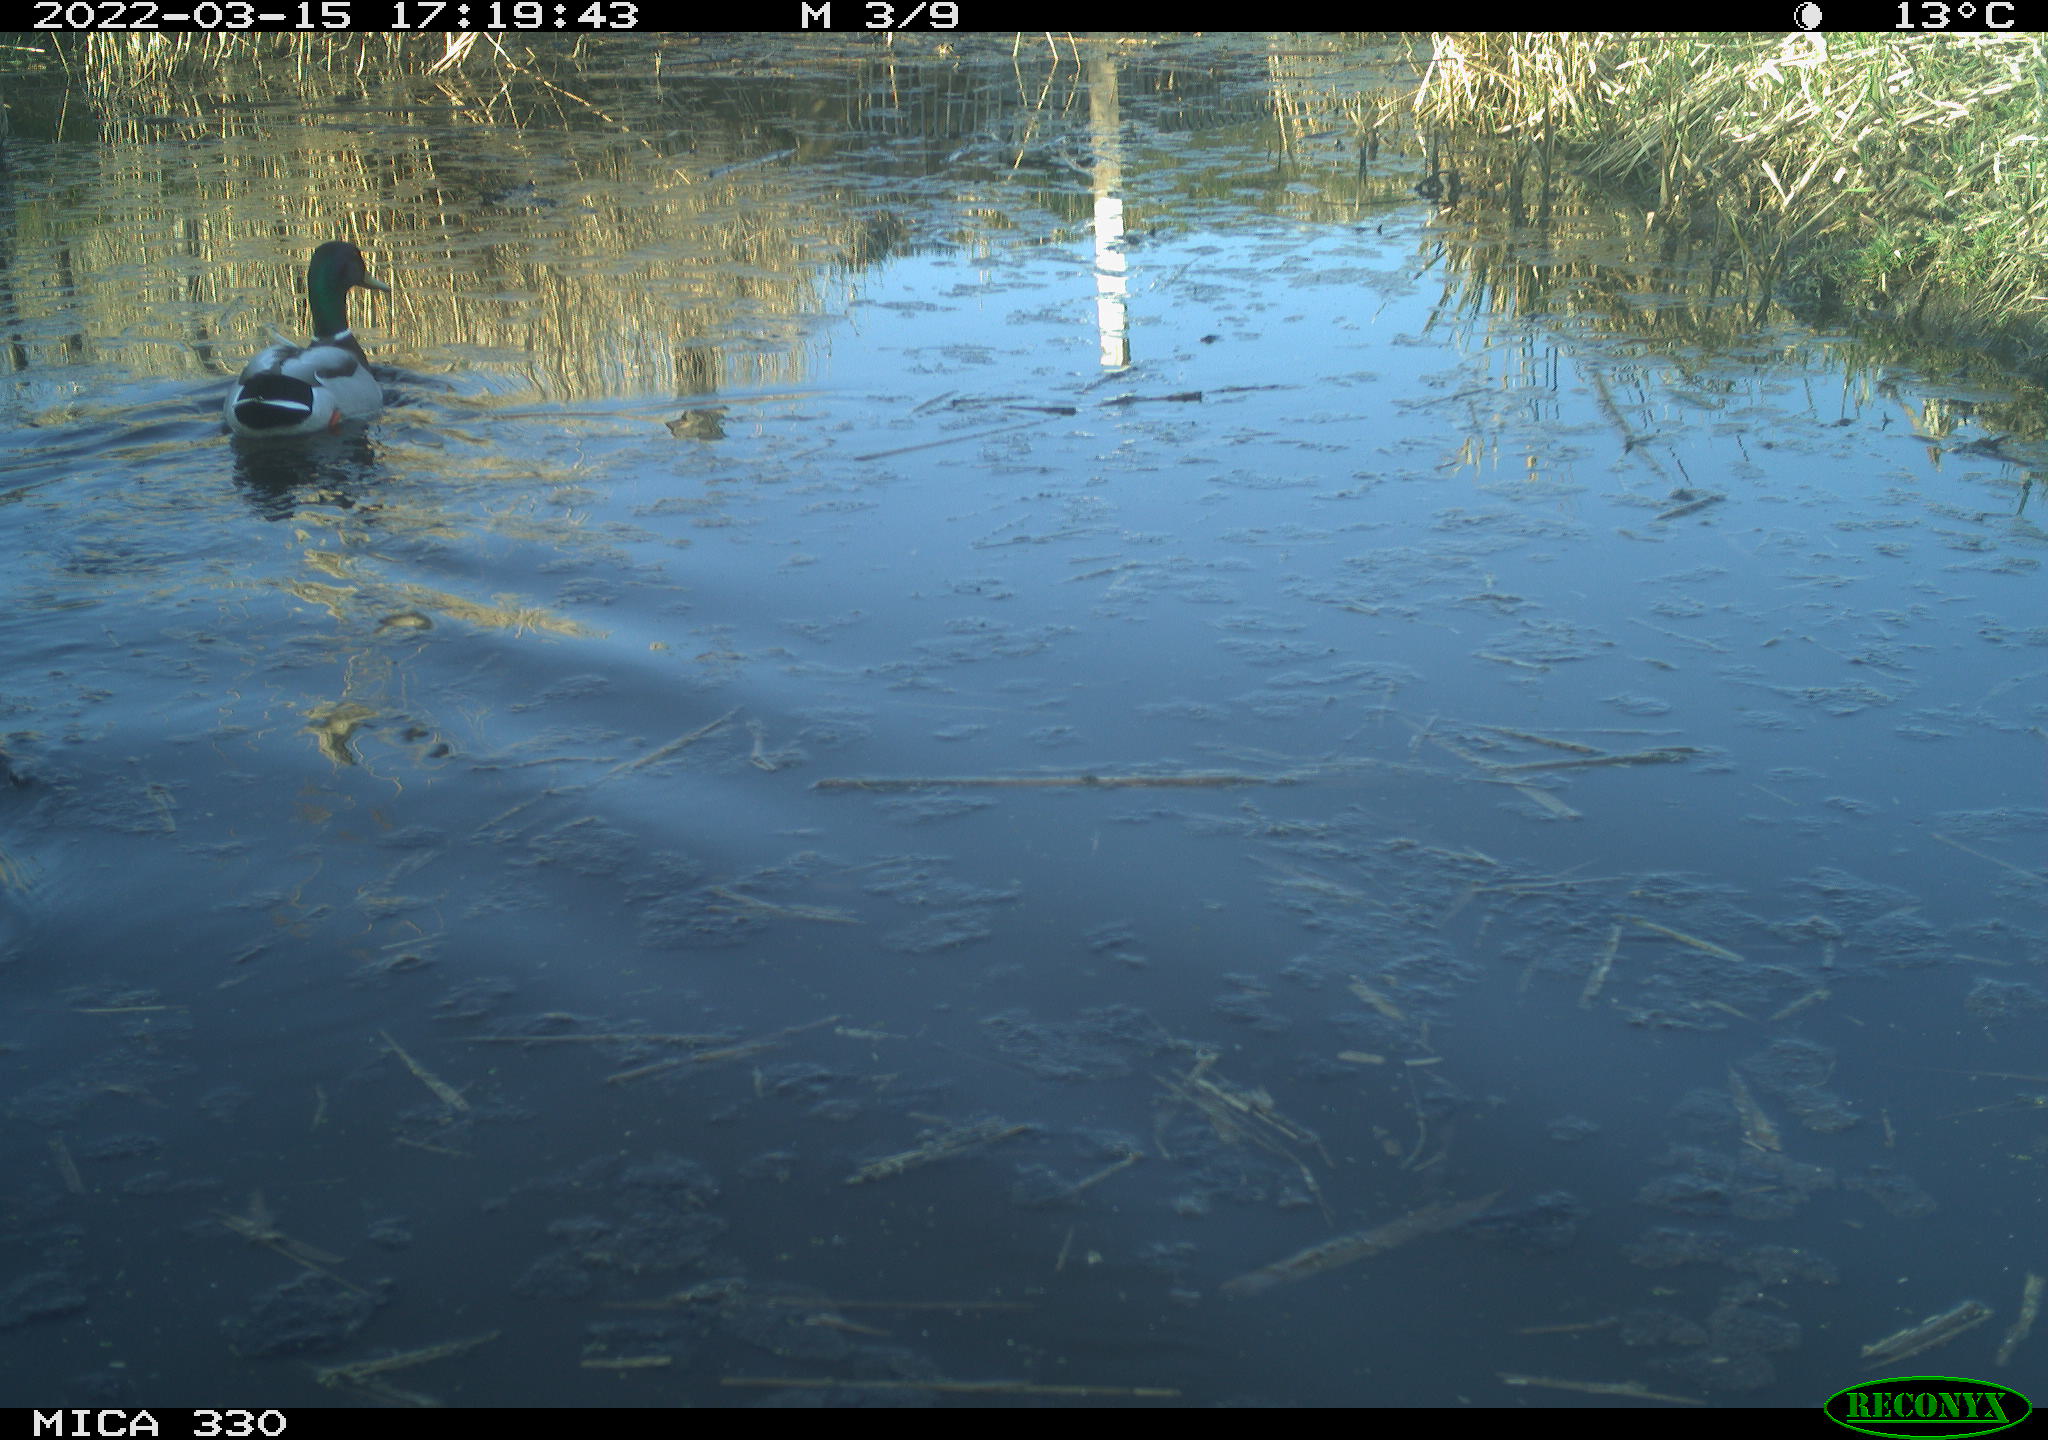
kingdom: Animalia
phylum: Chordata
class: Aves
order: Anseriformes
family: Anatidae
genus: Anas
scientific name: Anas platyrhynchos
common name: Mallard
